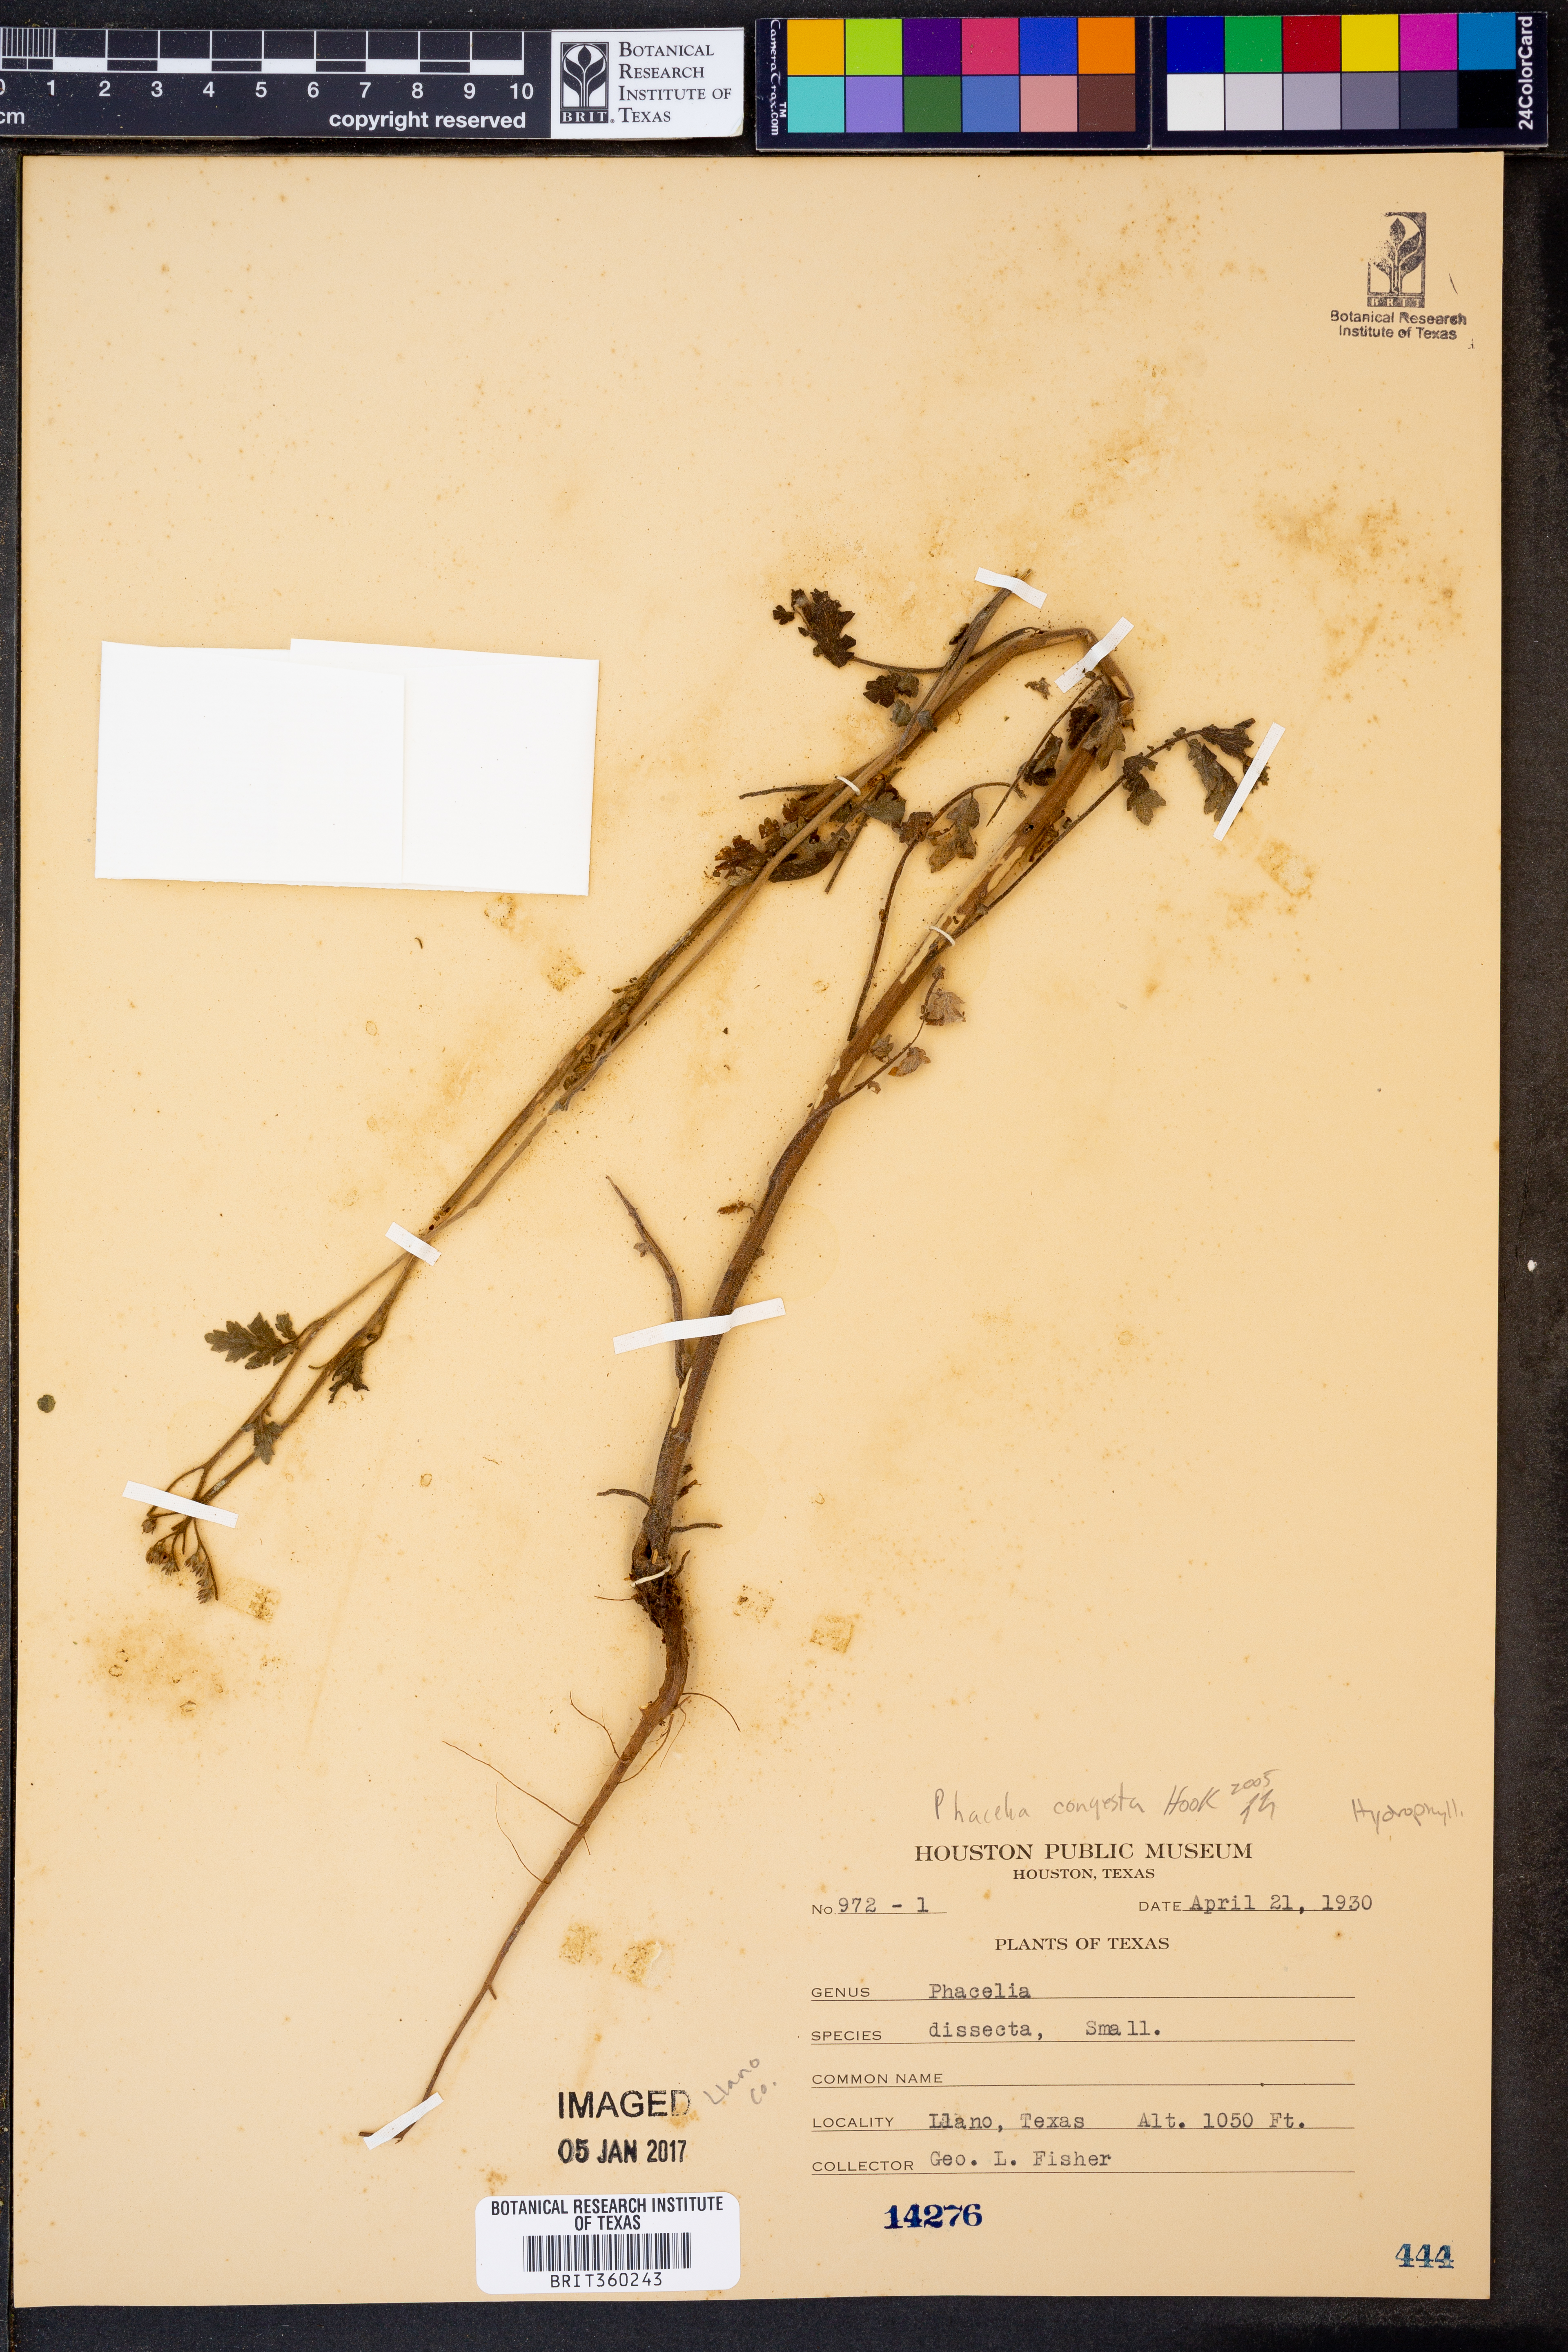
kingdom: Plantae
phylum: Tracheophyta
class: Magnoliopsida
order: Boraginales
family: Hydrophyllaceae
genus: Phacelia
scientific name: Phacelia congesta
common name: Blue curls
